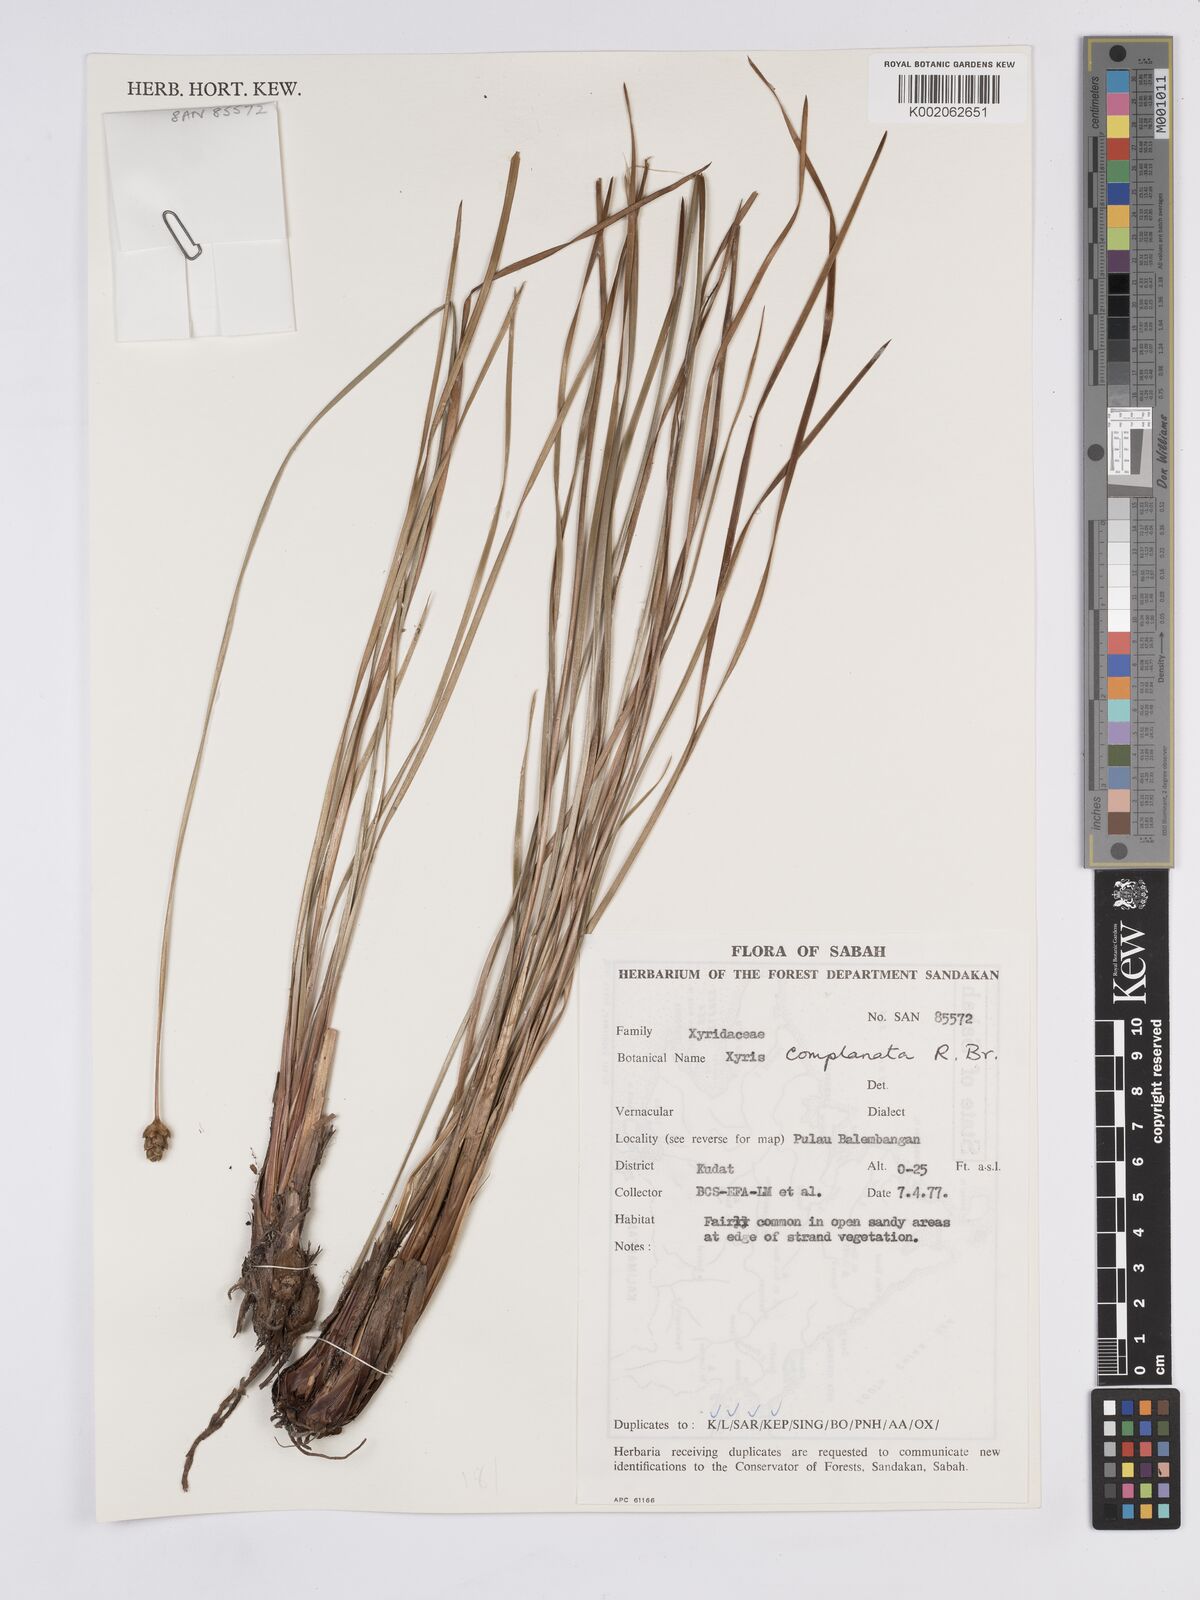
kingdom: Plantae
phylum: Tracheophyta
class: Liliopsida
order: Poales
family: Xyridaceae
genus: Xyris
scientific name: Xyris complanata
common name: Hawai'i yelloweyed grass
